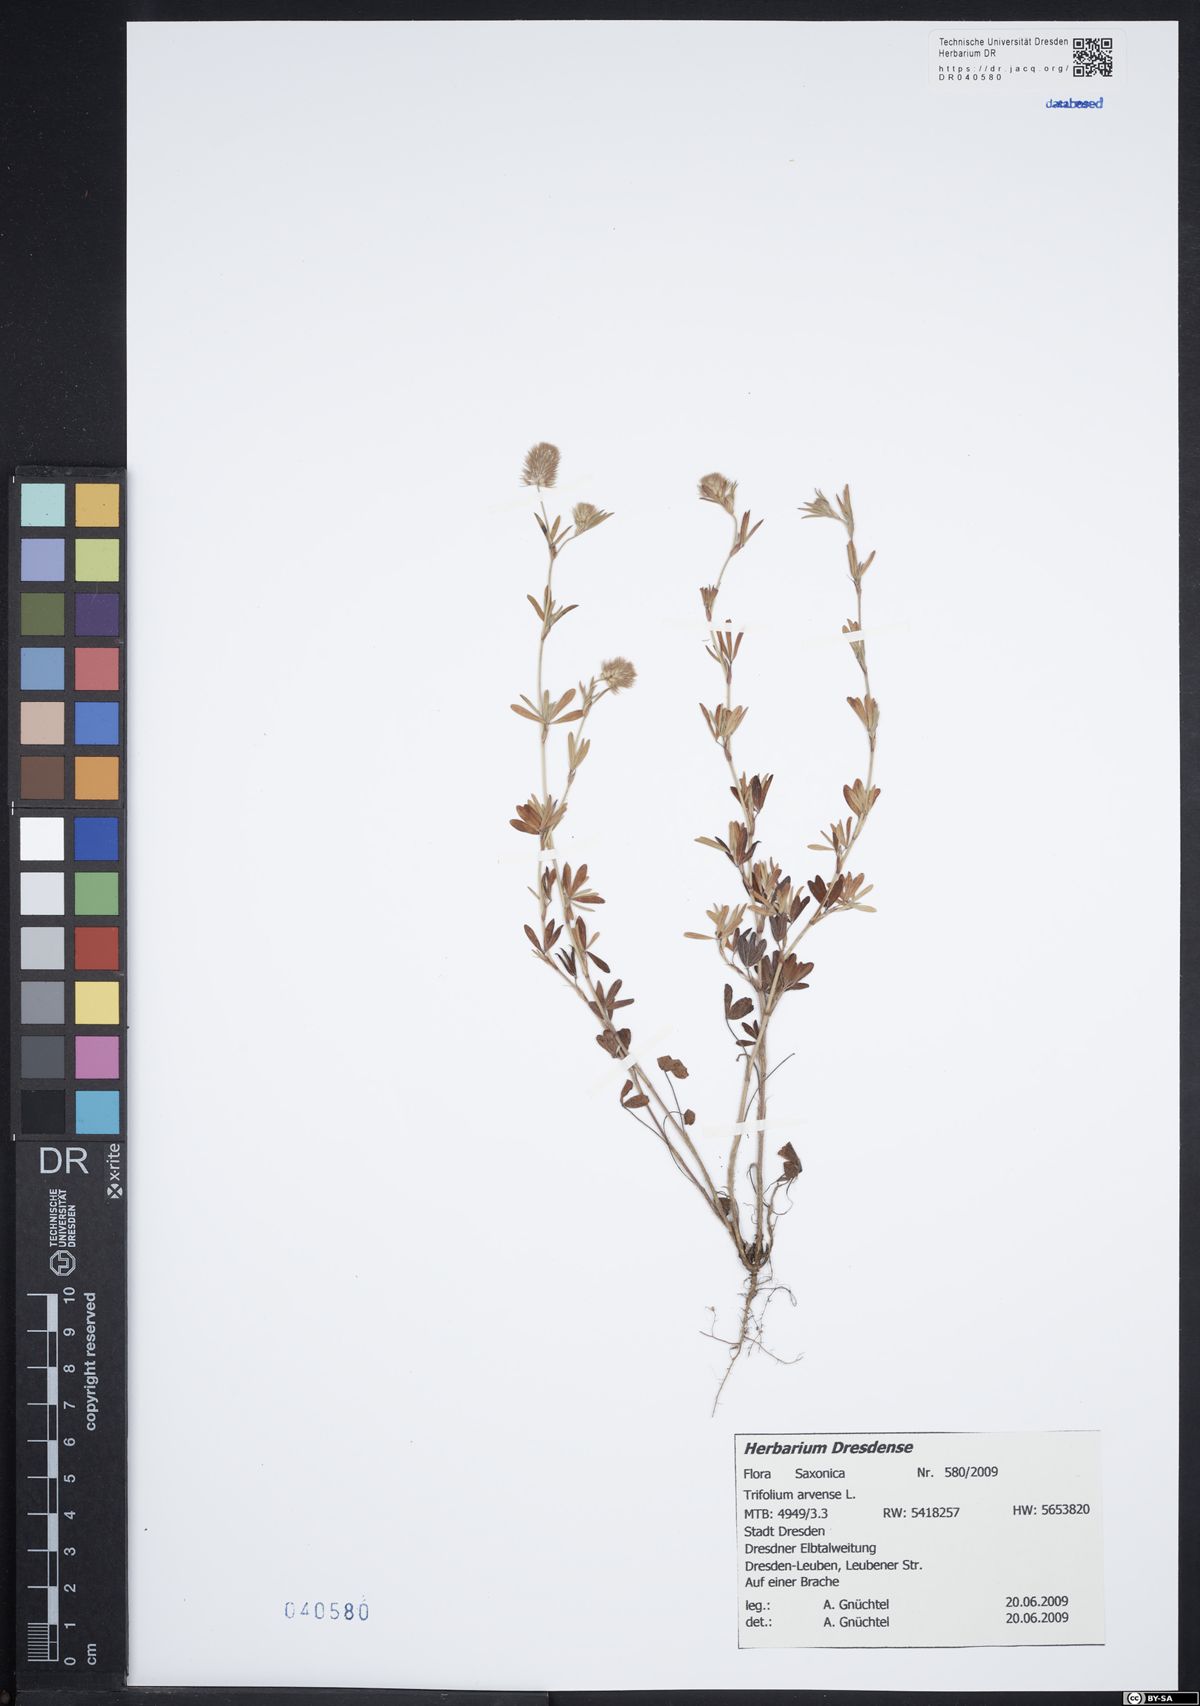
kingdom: Plantae
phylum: Tracheophyta
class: Magnoliopsida
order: Fabales
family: Fabaceae
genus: Trifolium
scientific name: Trifolium arvense
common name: Hare's-foot clover
